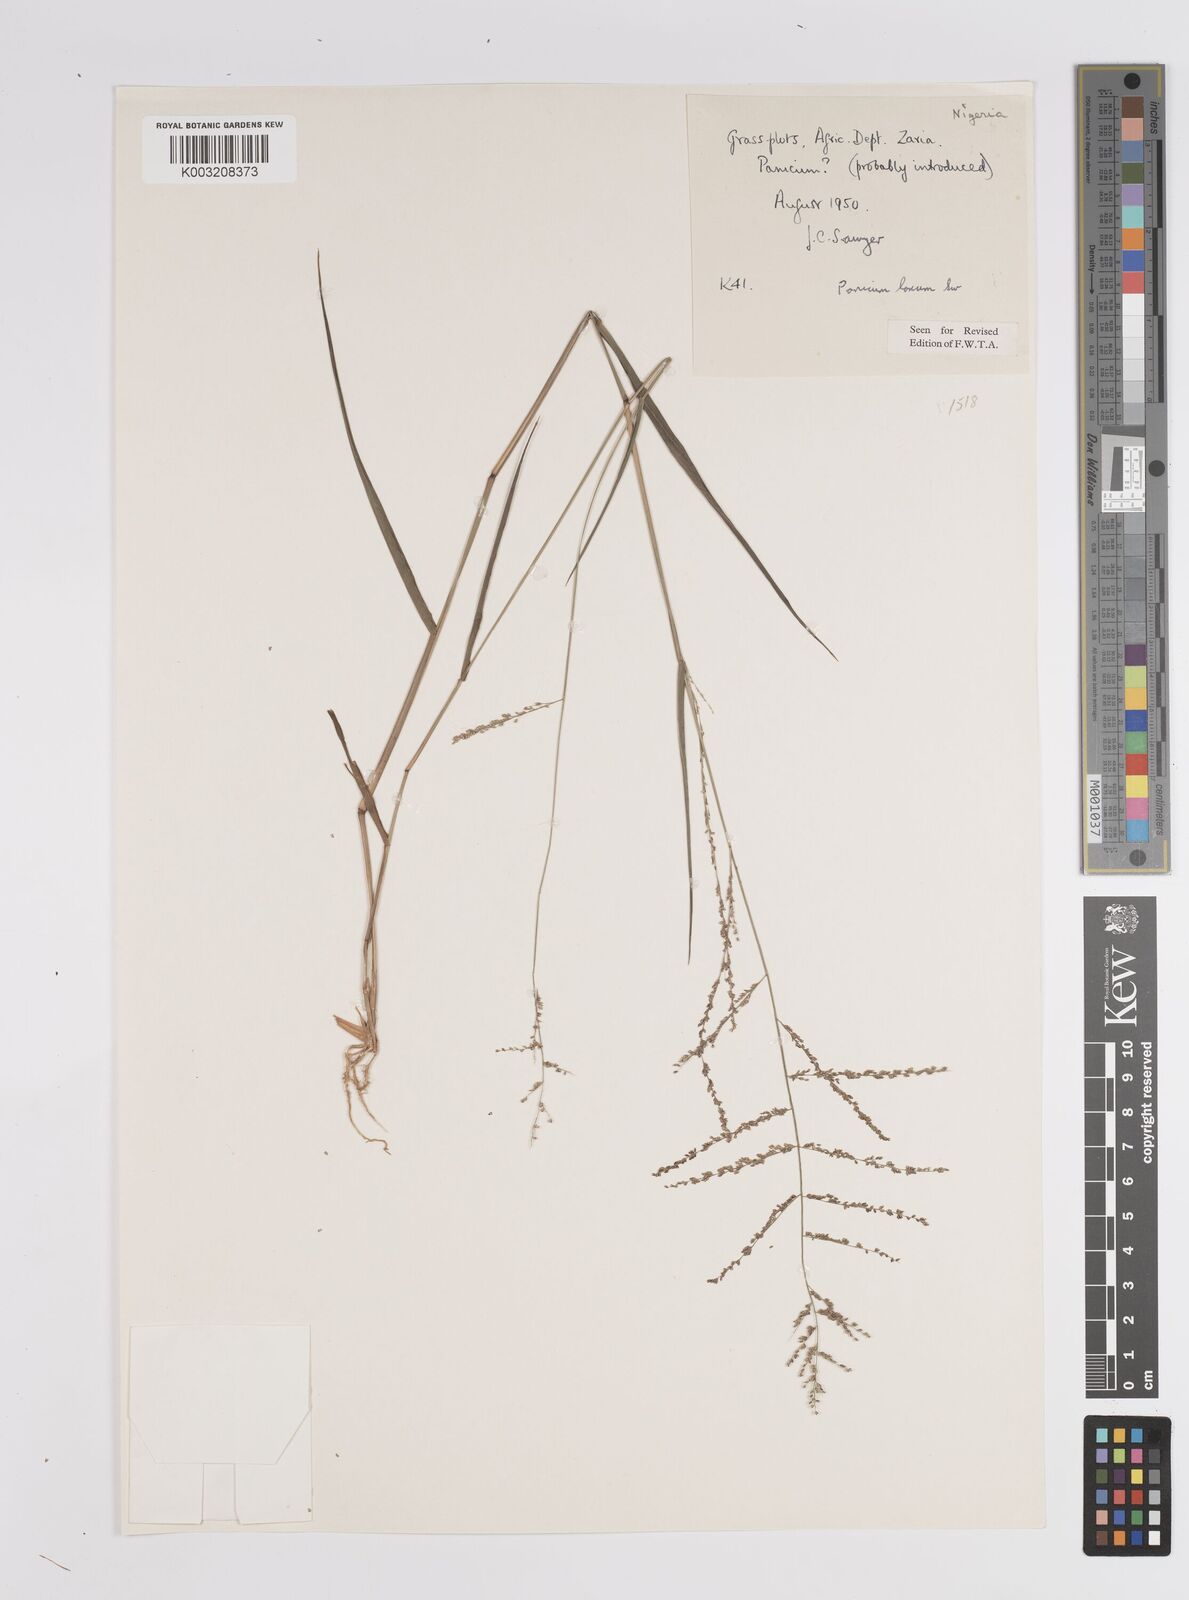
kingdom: Plantae
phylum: Tracheophyta
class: Liliopsida
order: Poales
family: Poaceae
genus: Steinchisma
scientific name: Steinchisma laxum
